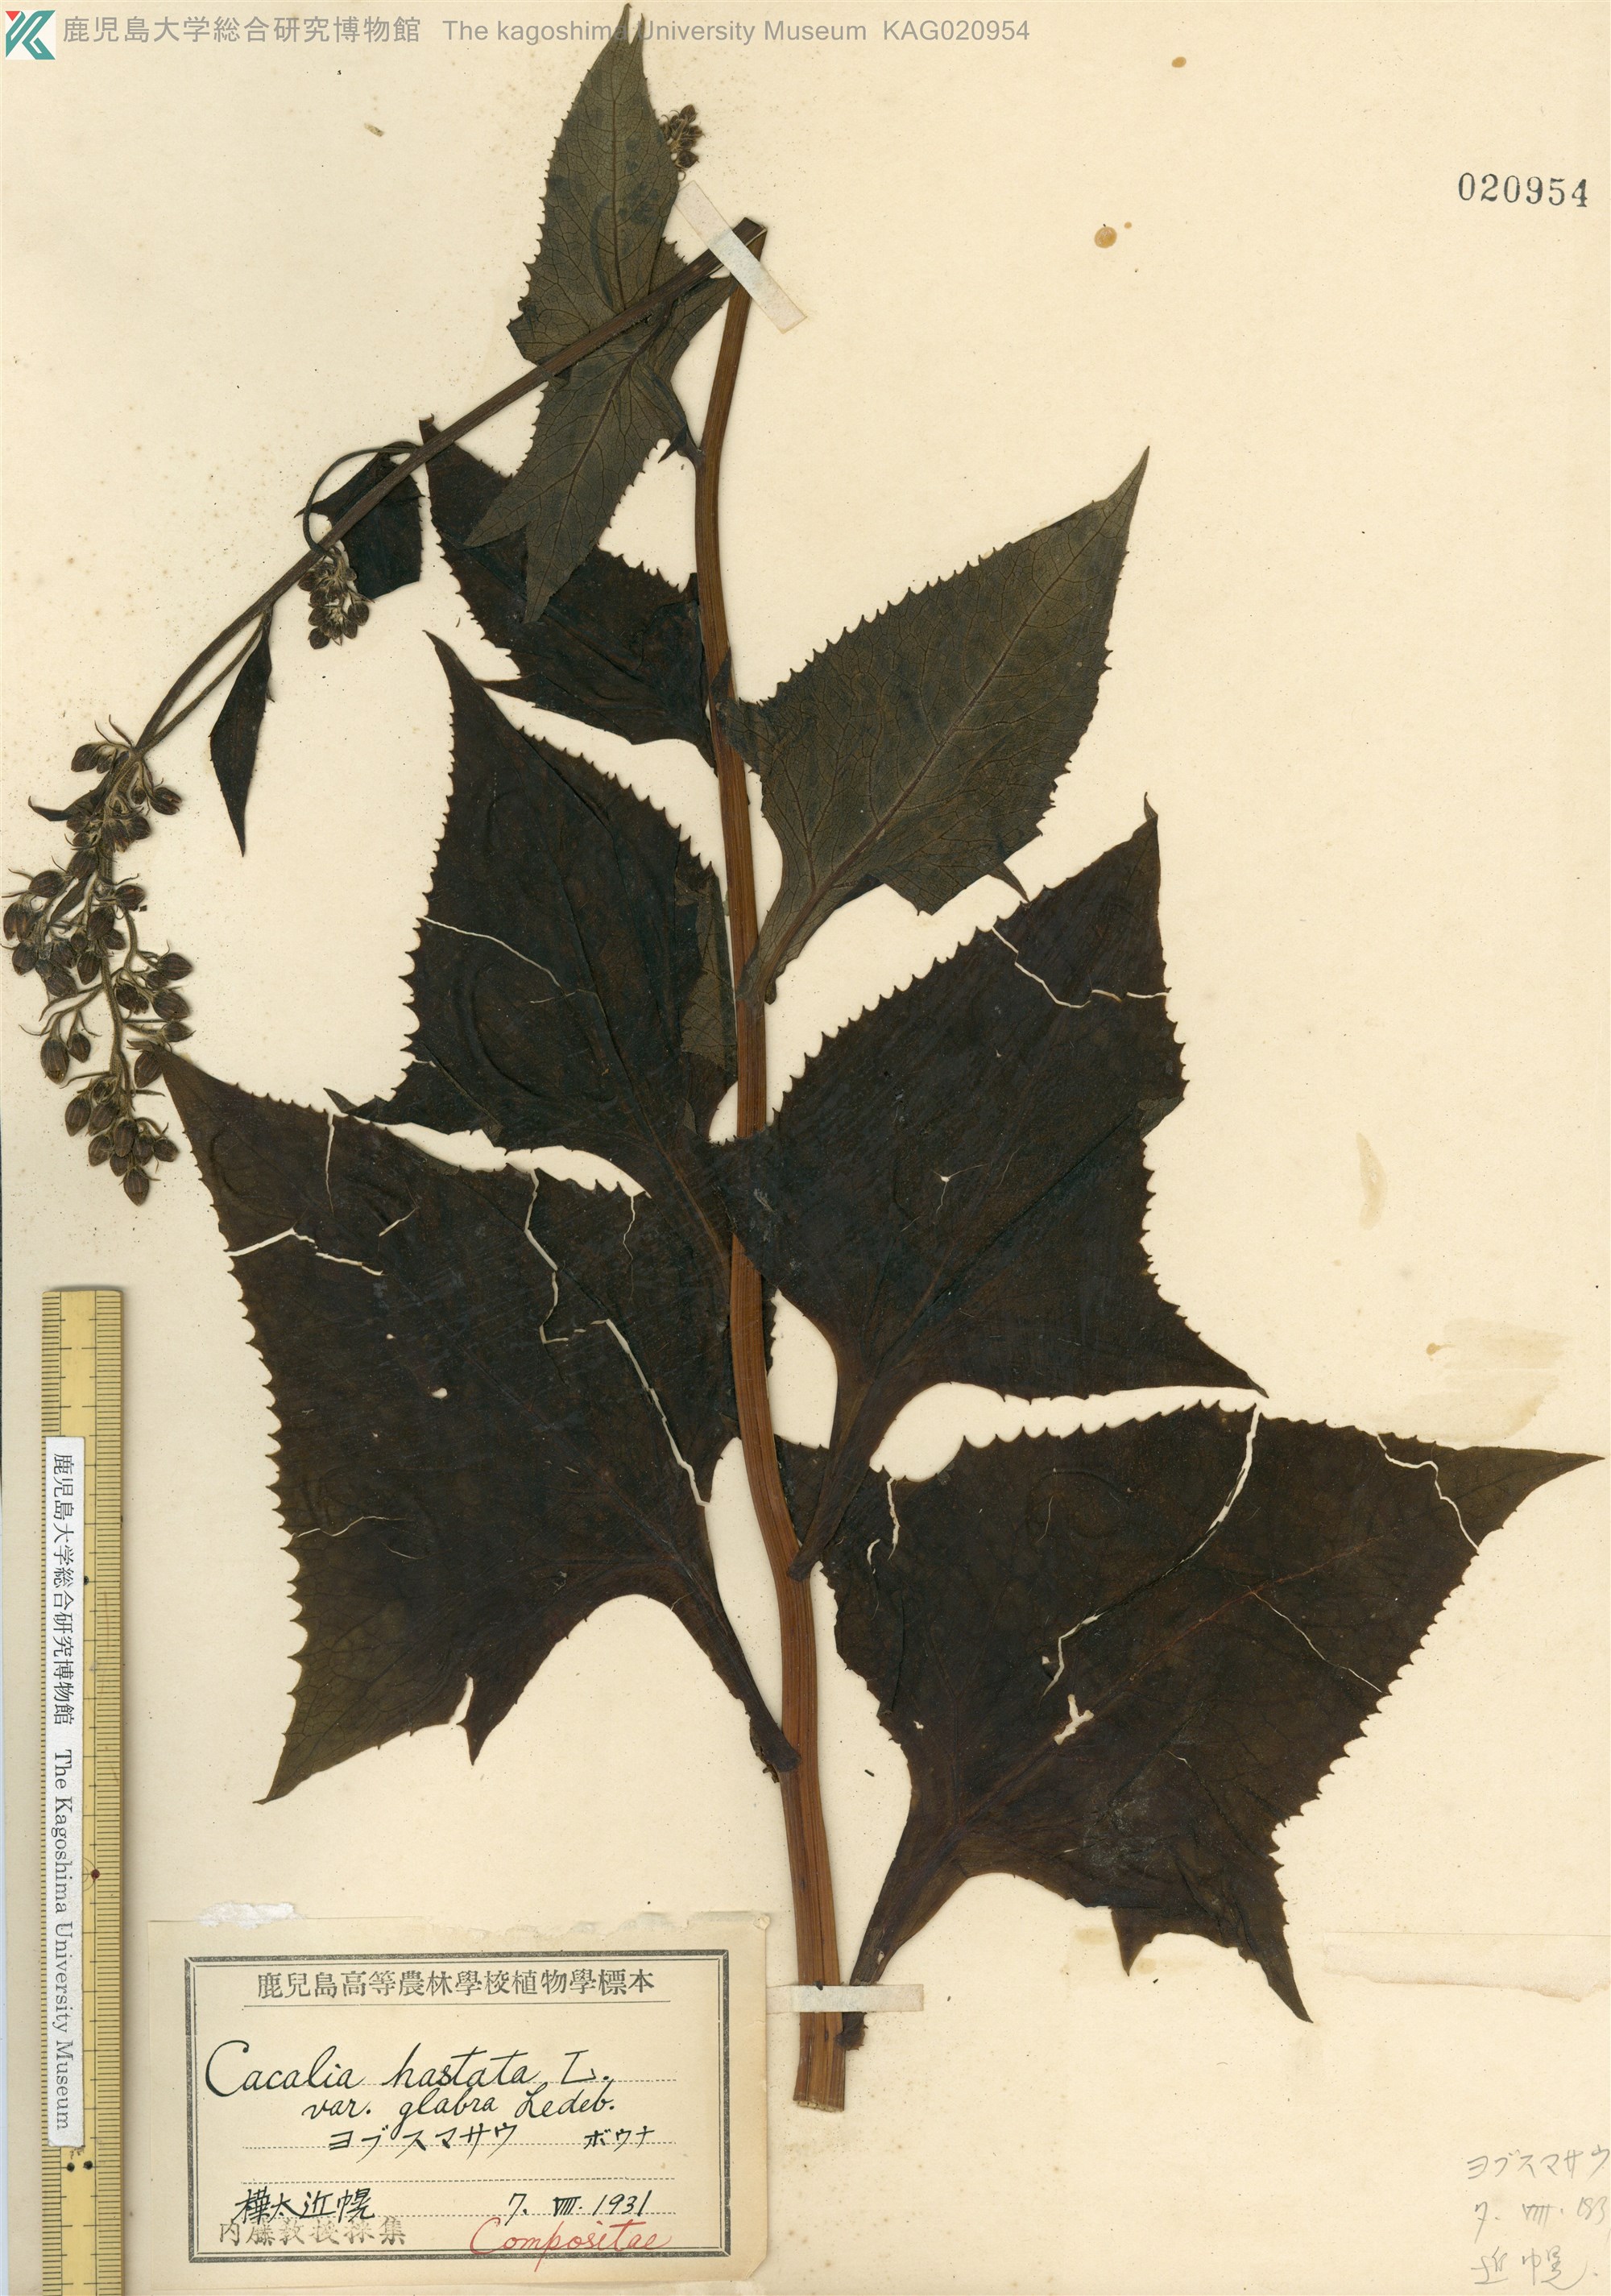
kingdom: Plantae
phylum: Tracheophyta
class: Magnoliopsida
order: Asterales
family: Asteraceae
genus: Parasenecio
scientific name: Parasenecio
